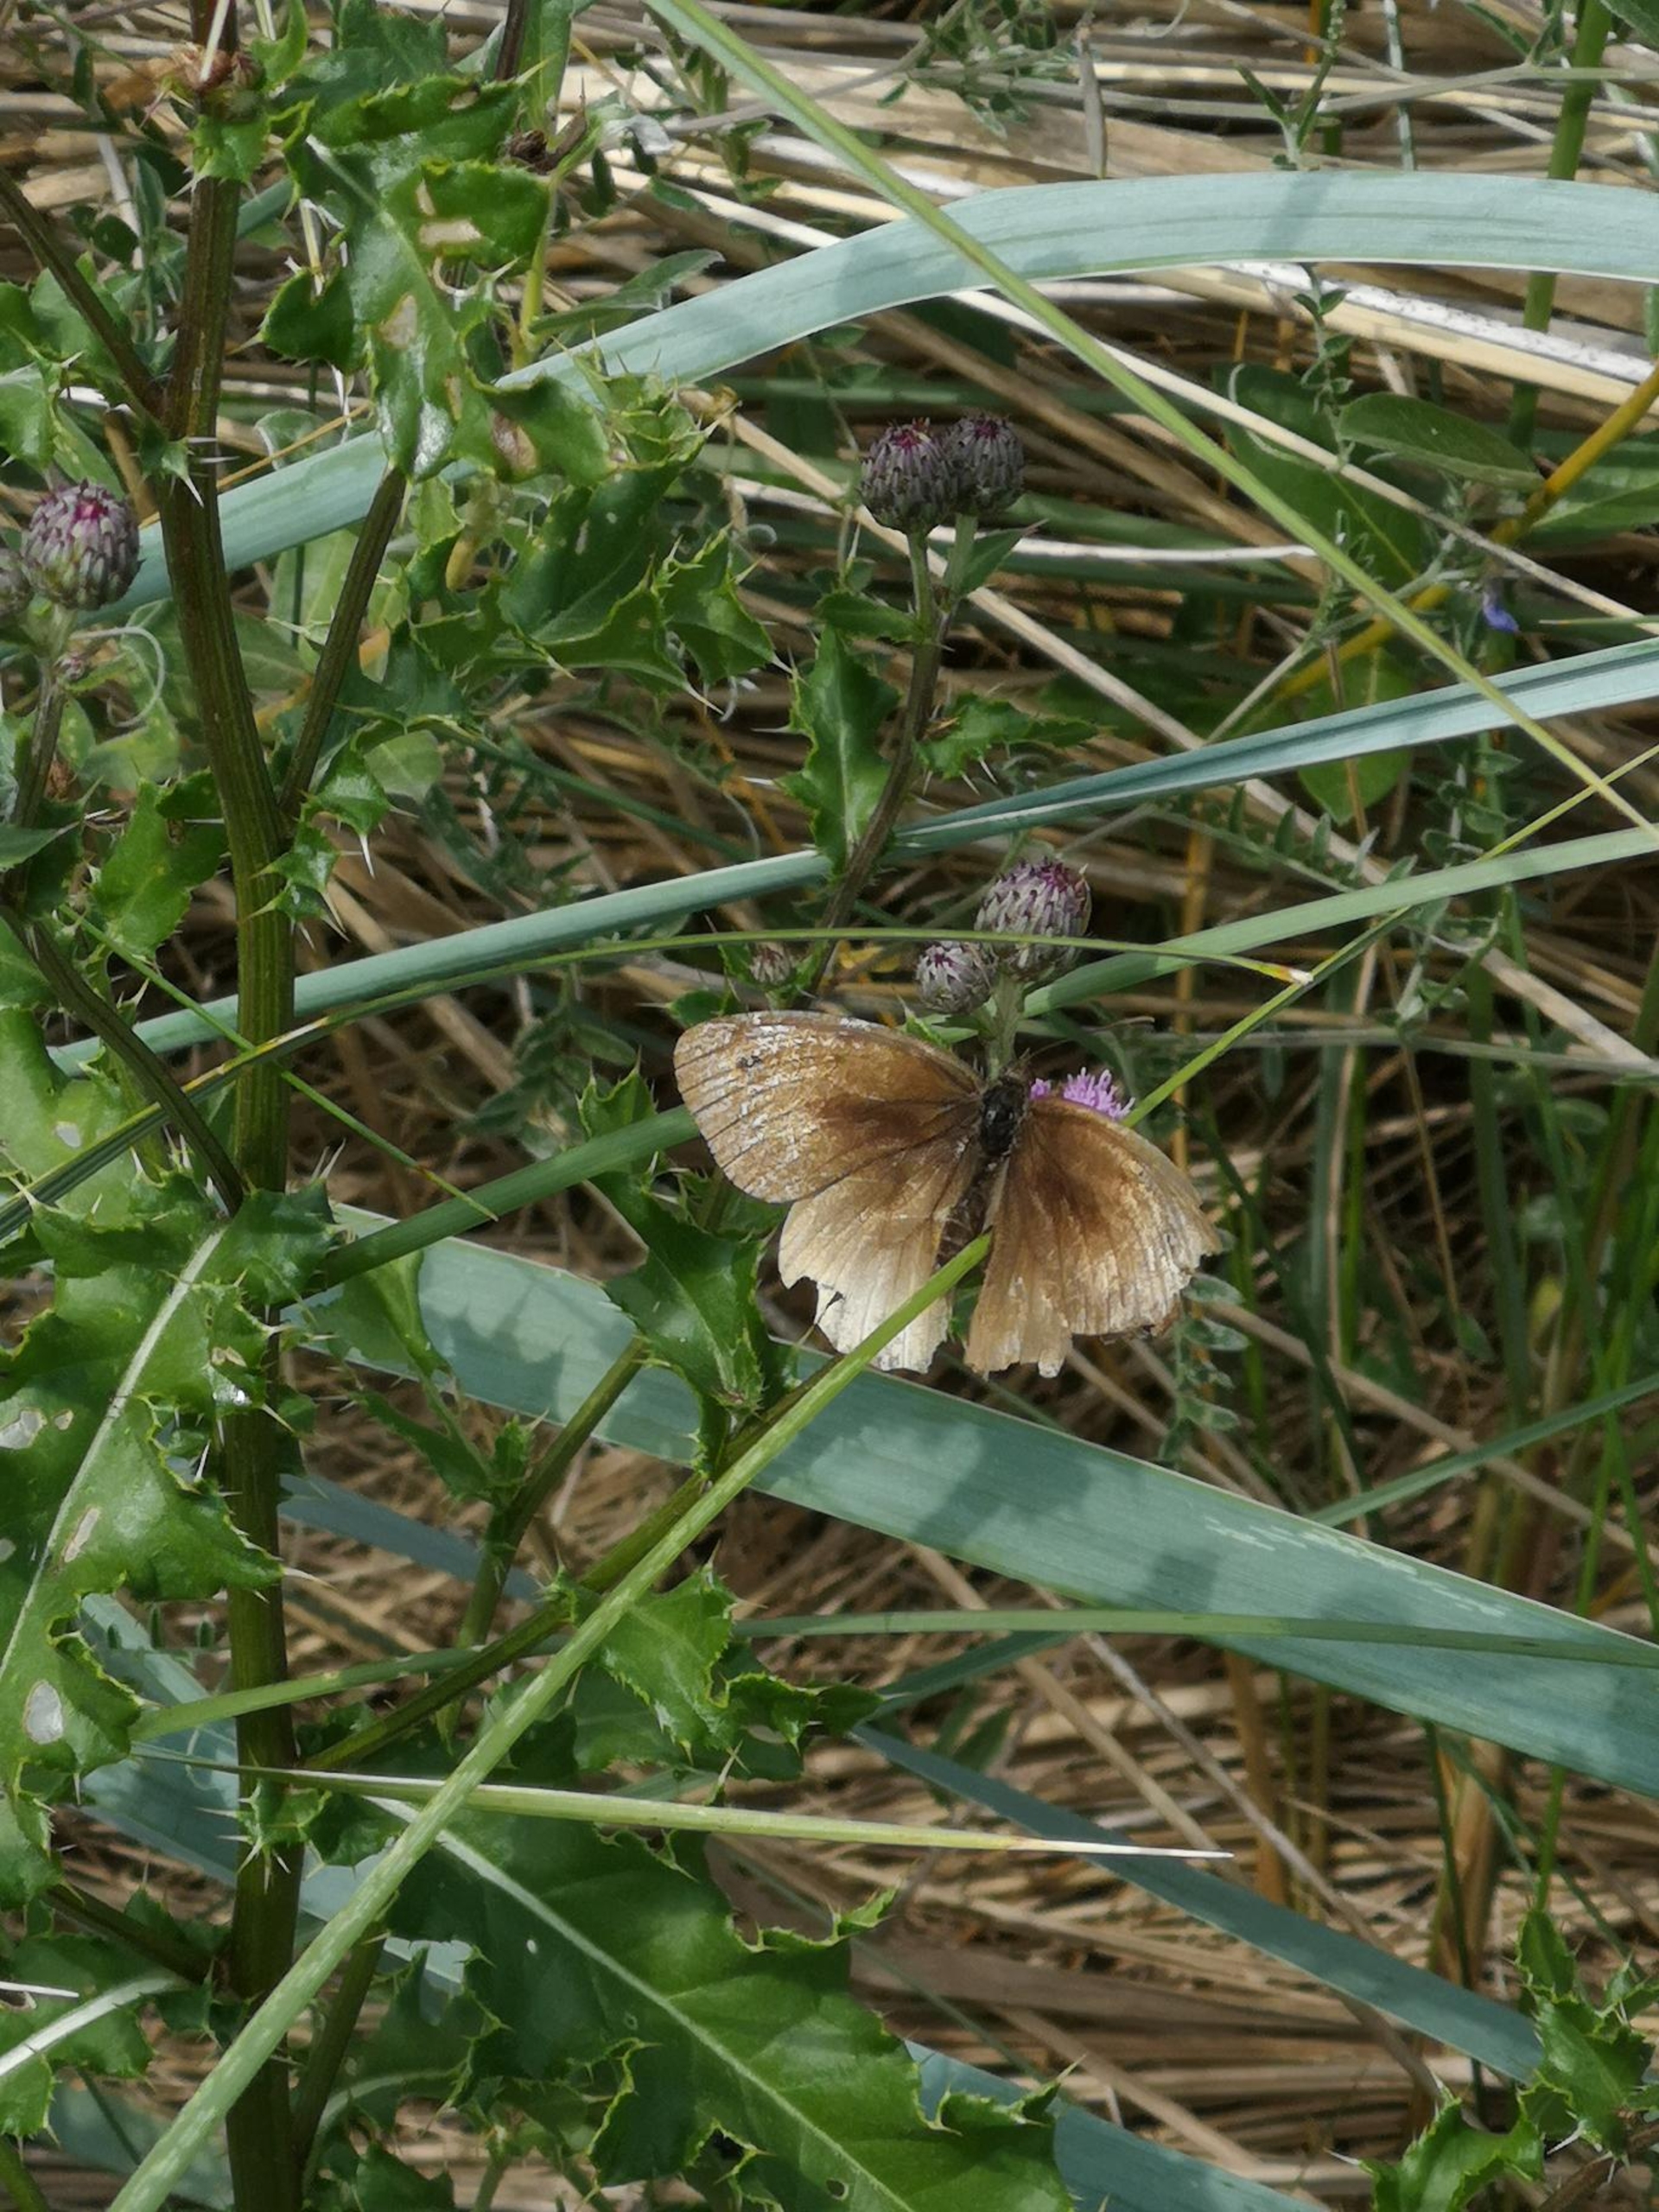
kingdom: Animalia
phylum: Arthropoda
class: Insecta
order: Lepidoptera
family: Nymphalidae
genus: Maniola
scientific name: Maniola jurtina
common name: Græsrandøje
